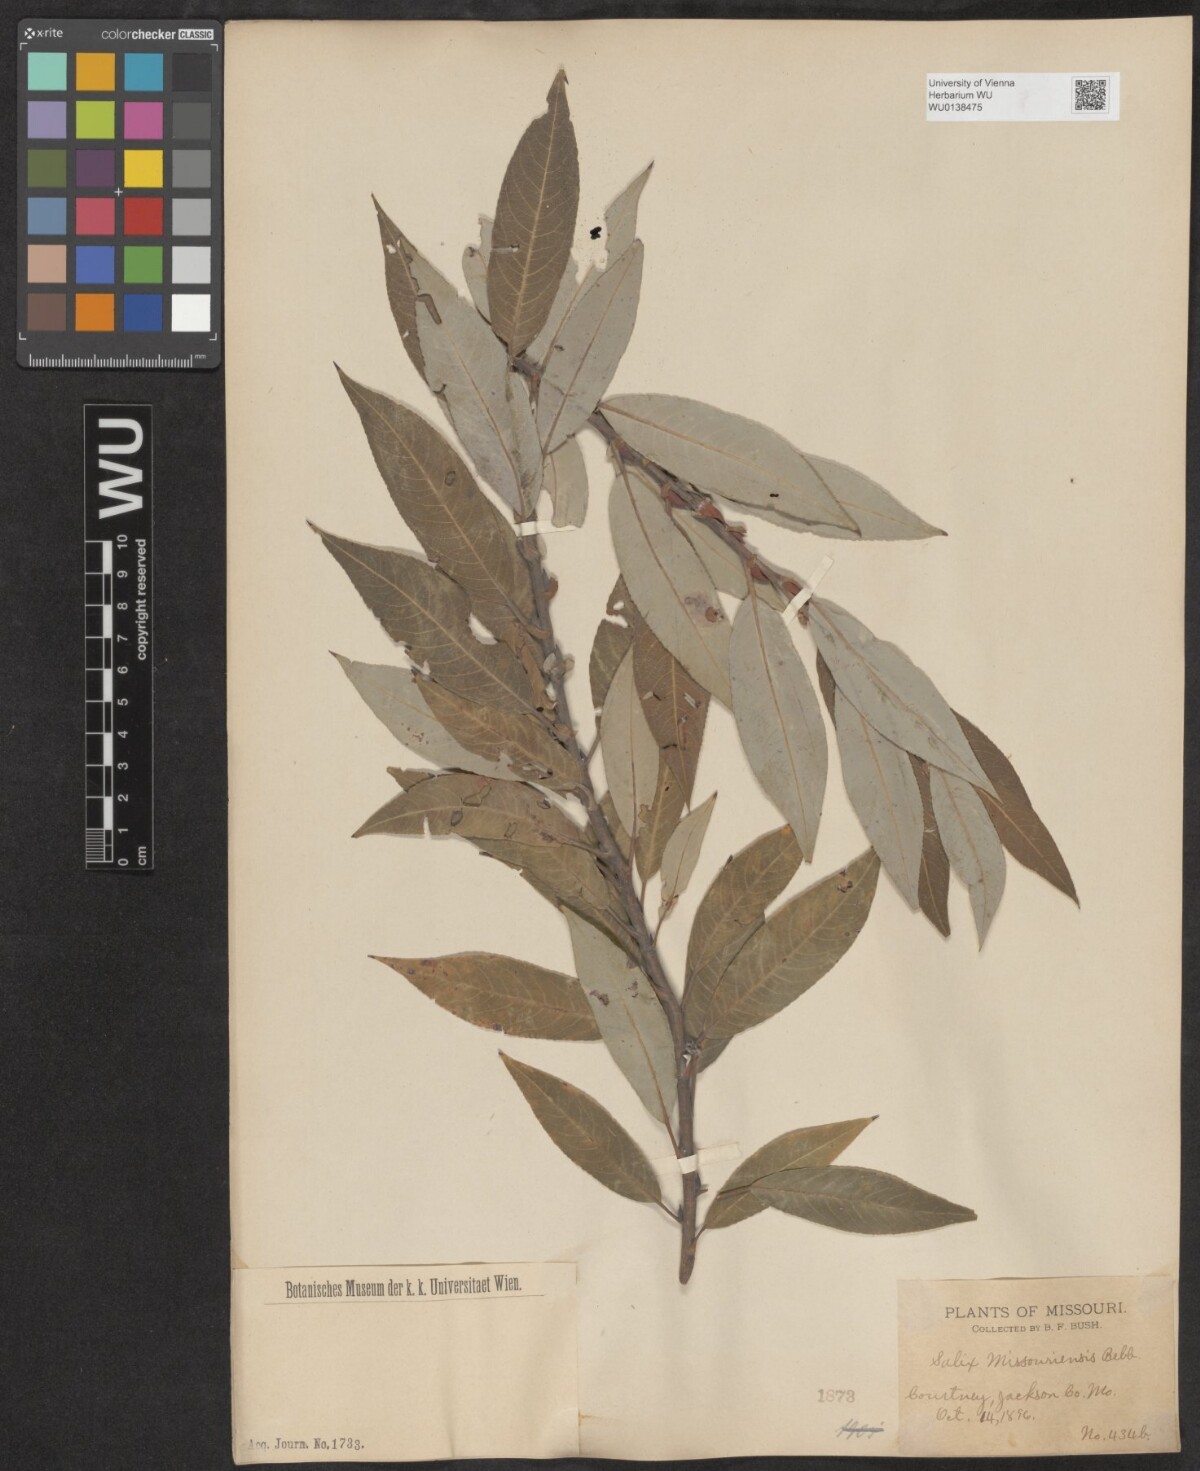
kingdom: Plantae
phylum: Tracheophyta
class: Magnoliopsida
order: Malpighiales
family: Salicaceae
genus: Salix
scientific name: Salix eriocephala
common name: Heart-leaved willow
